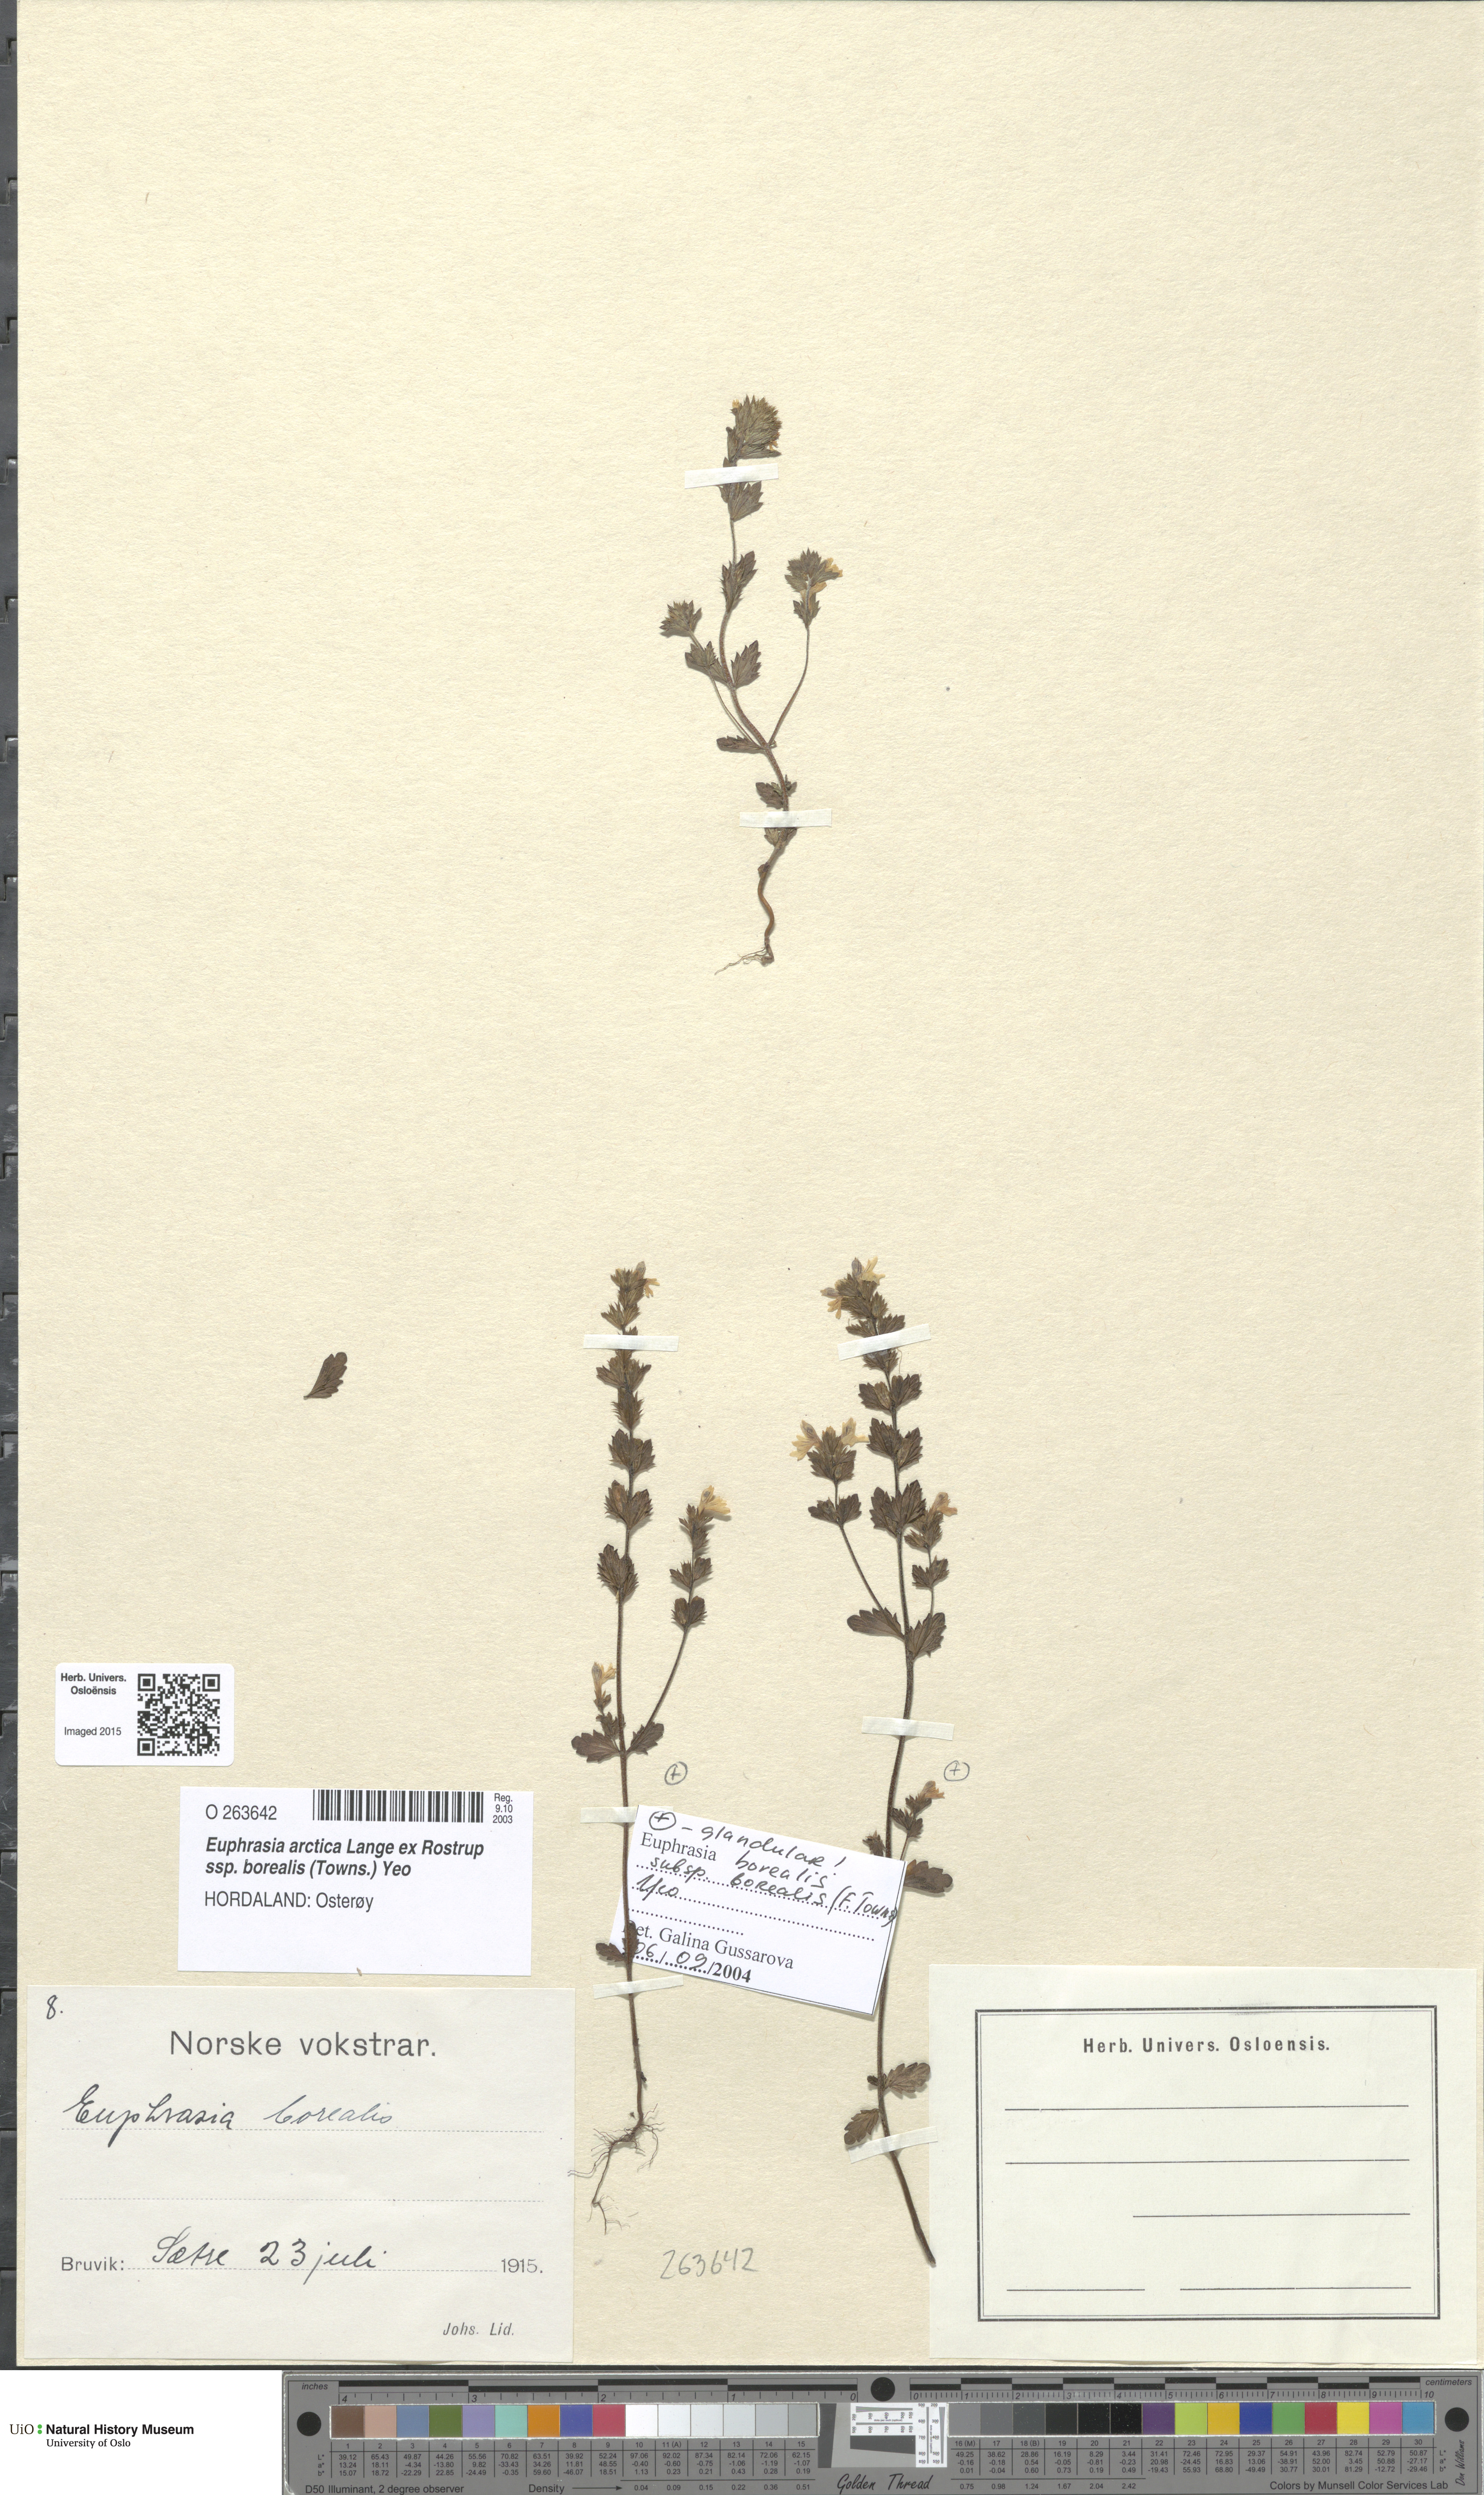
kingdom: Plantae
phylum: Tracheophyta
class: Magnoliopsida
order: Lamiales
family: Orobanchaceae
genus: Euphrasia
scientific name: Euphrasia arctica
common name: An eyebright
